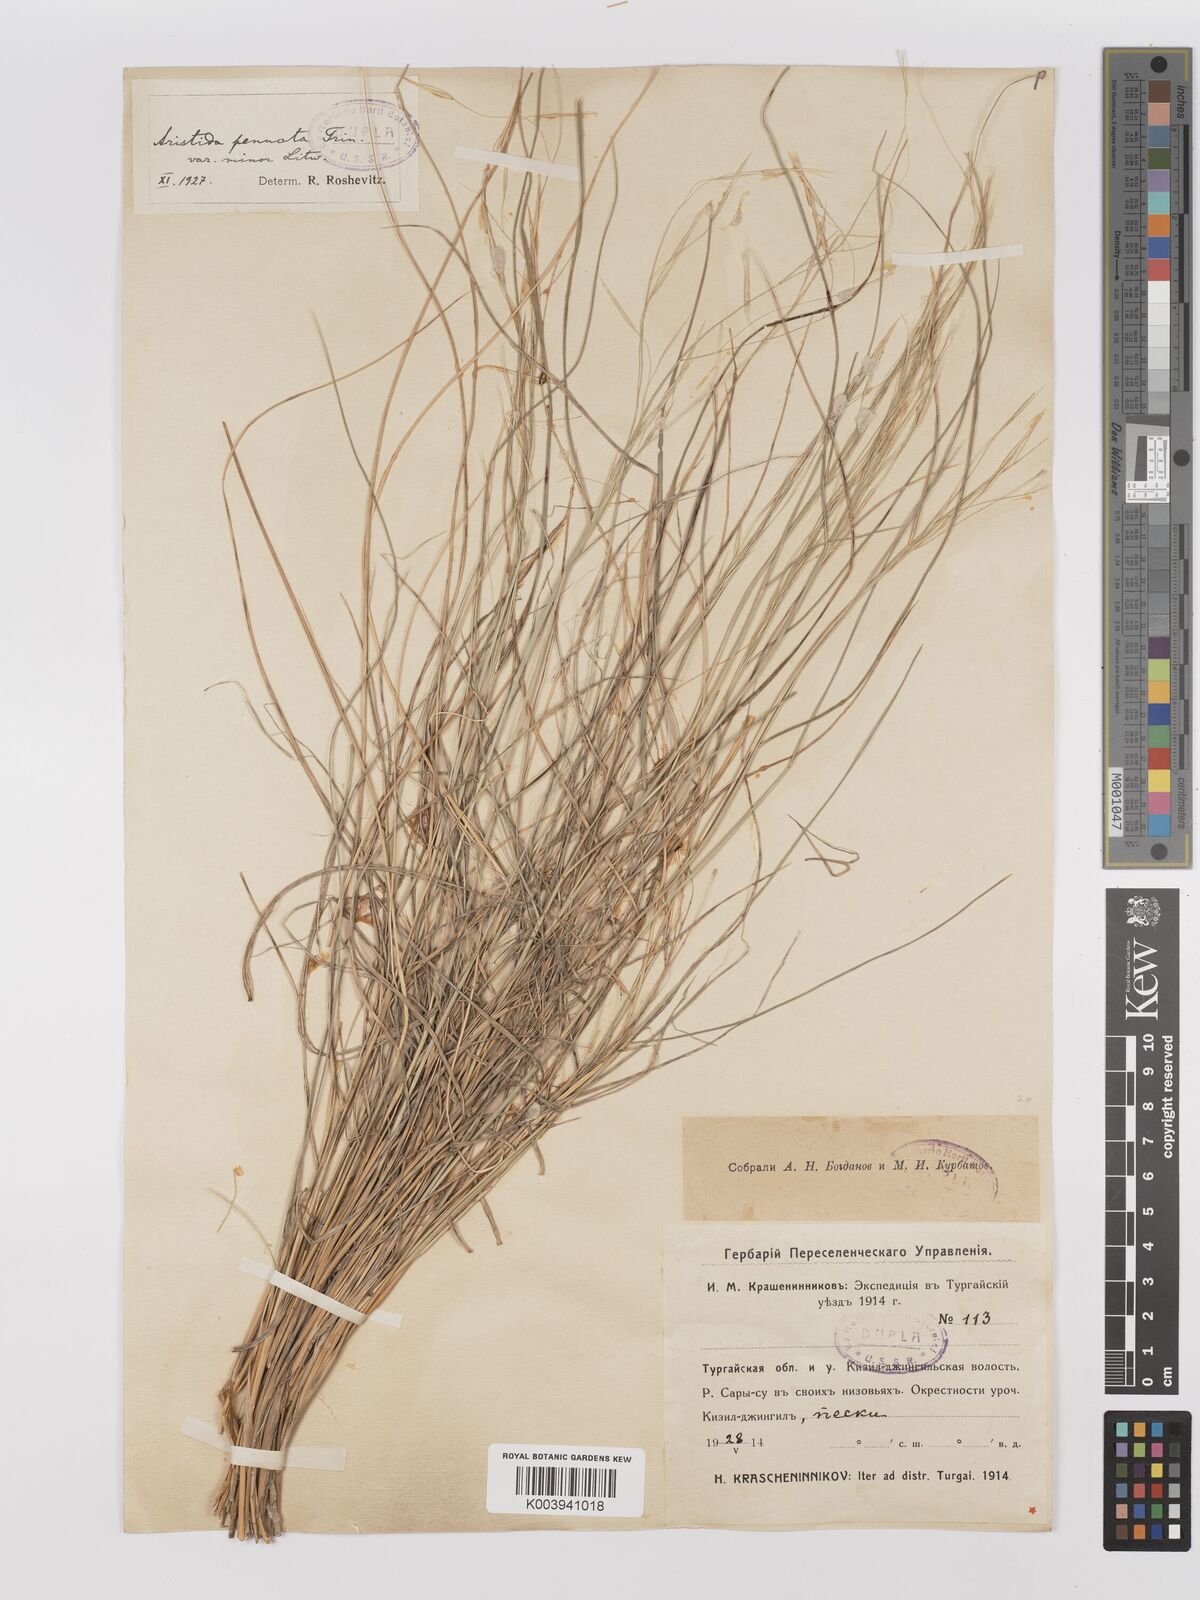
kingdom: Plantae
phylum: Tracheophyta
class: Liliopsida
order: Poales
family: Poaceae
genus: Stipagrostis
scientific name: Stipagrostis pennata
